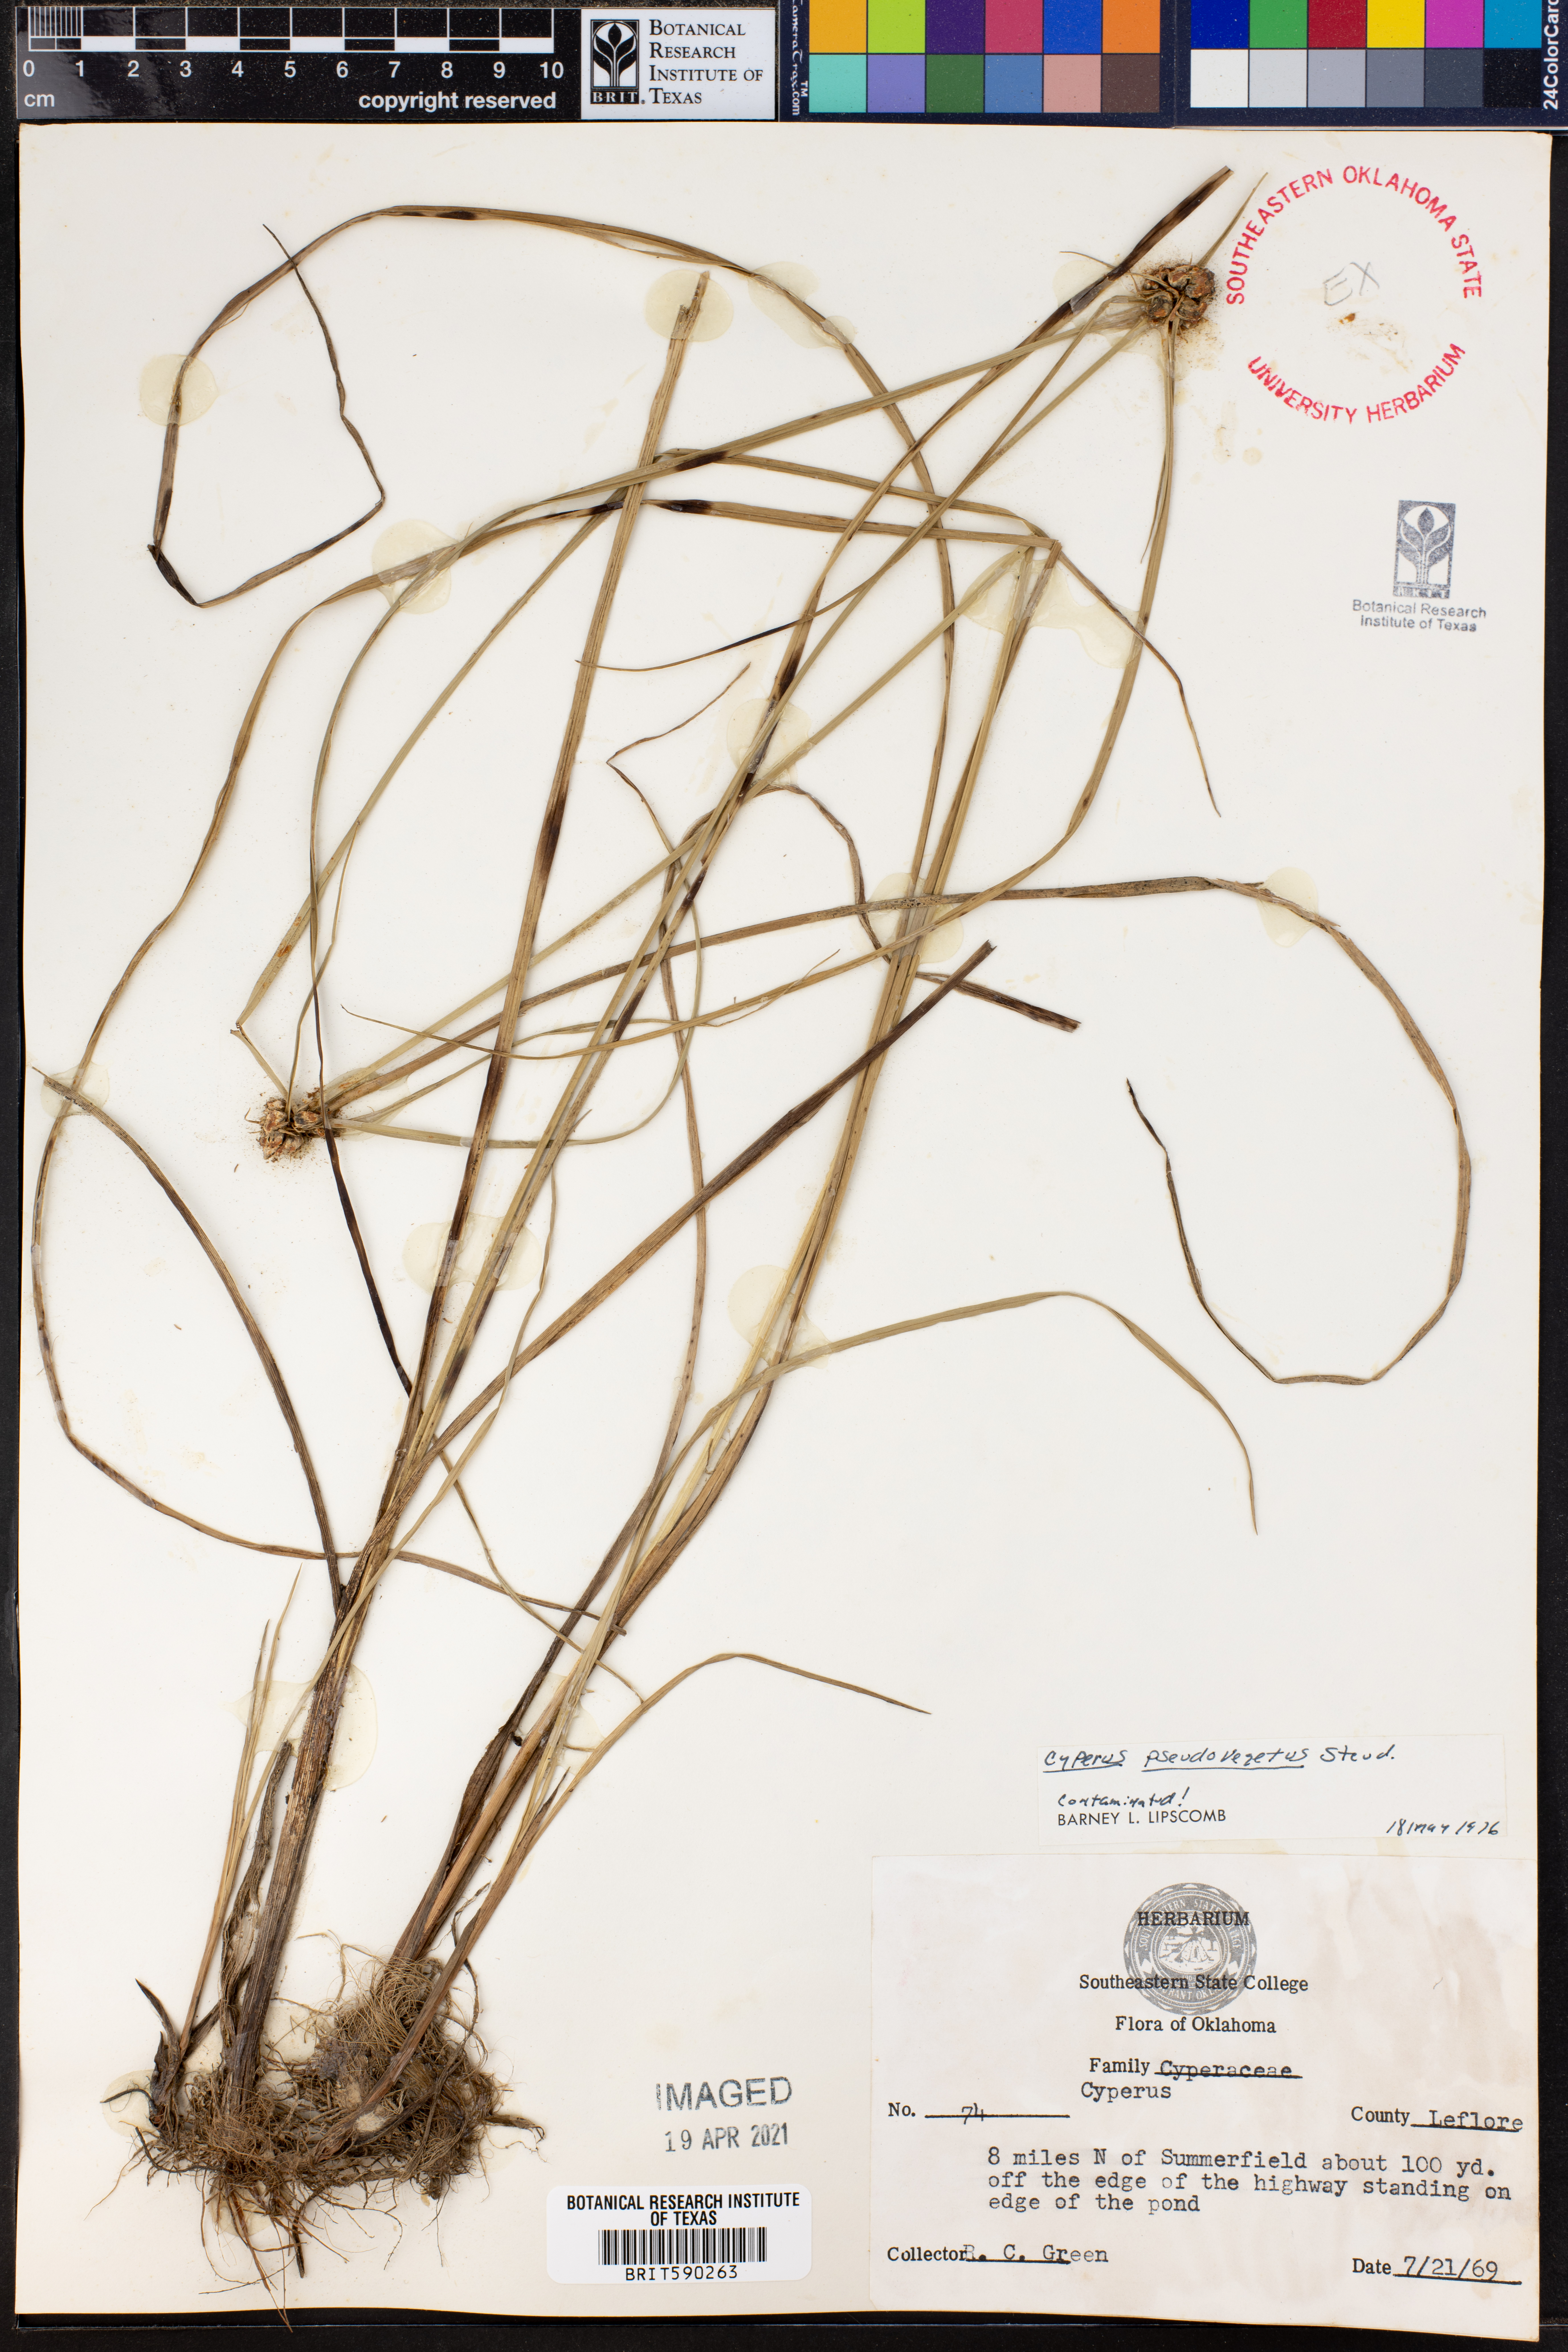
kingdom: Plantae
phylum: Tracheophyta
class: Liliopsida
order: Poales
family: Cyperaceae
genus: Cyperus
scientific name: Cyperus pseudovegetus
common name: Marsh flat sedge
